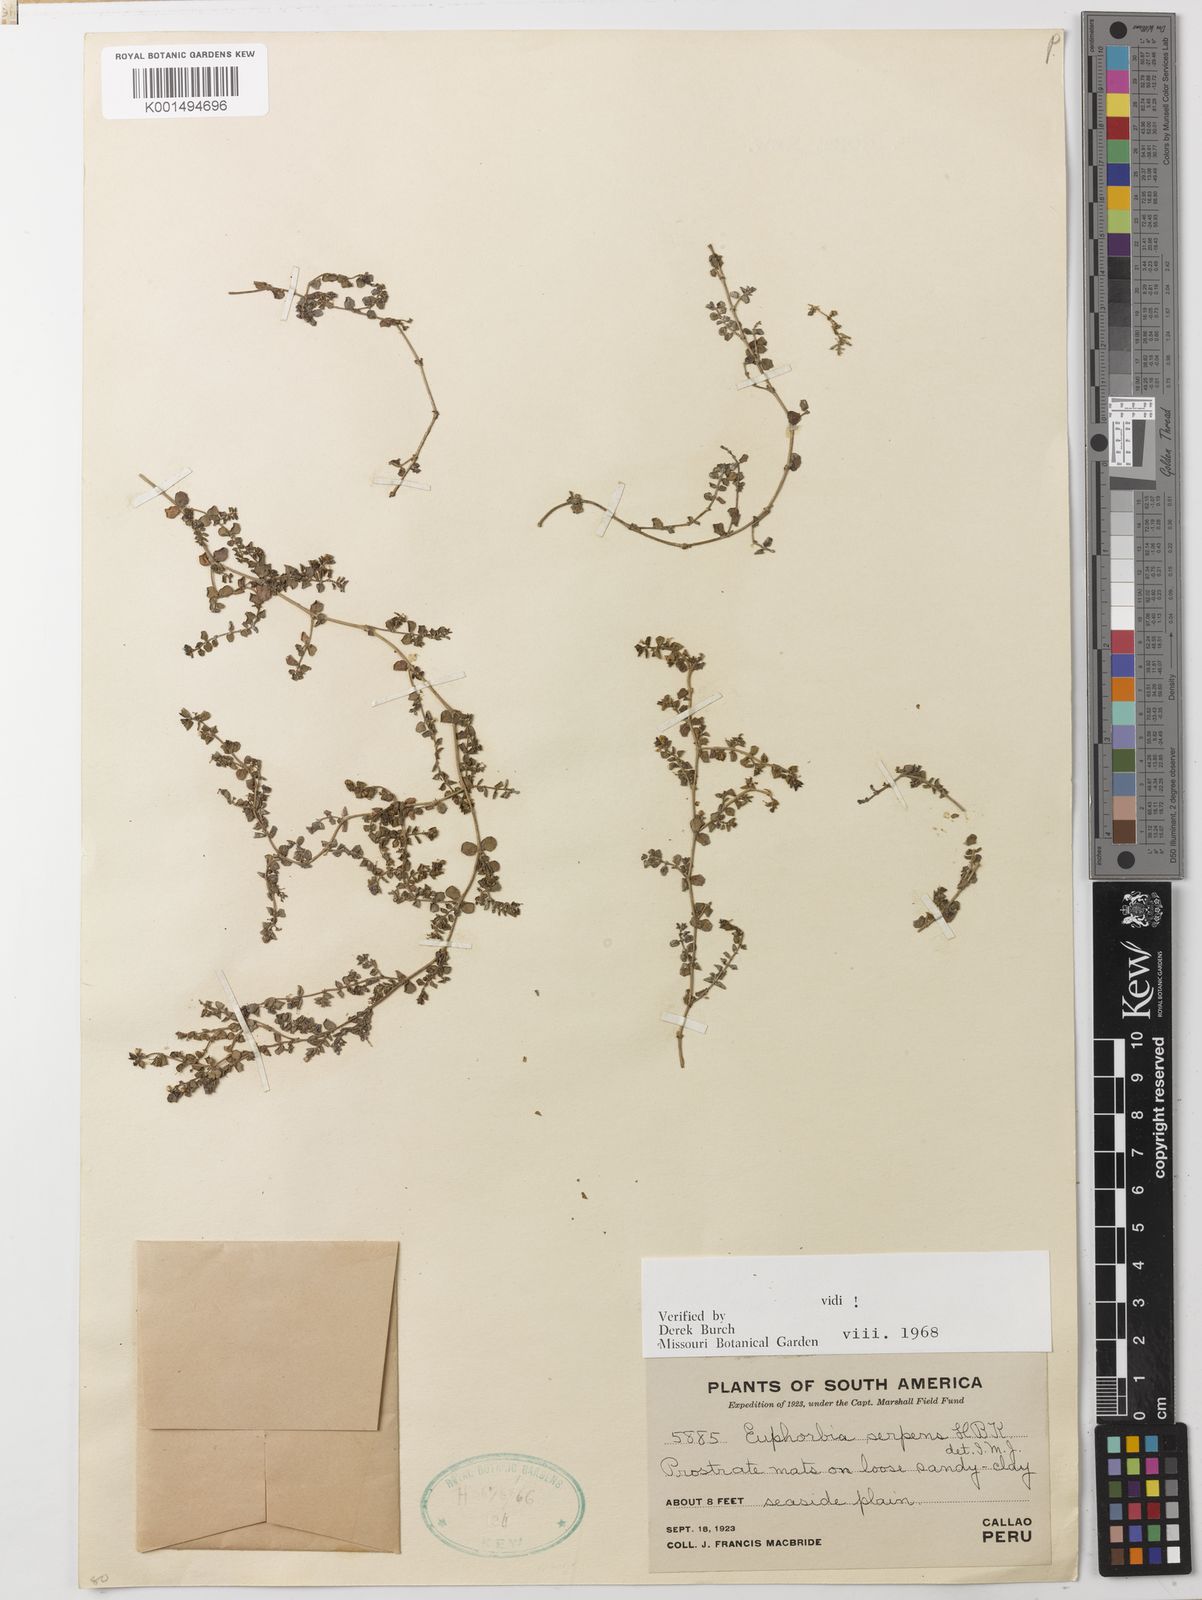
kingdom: Plantae
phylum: Tracheophyta
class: Magnoliopsida
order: Malpighiales
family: Euphorbiaceae
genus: Euphorbia
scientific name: Euphorbia serpens
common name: Matted sandmat
